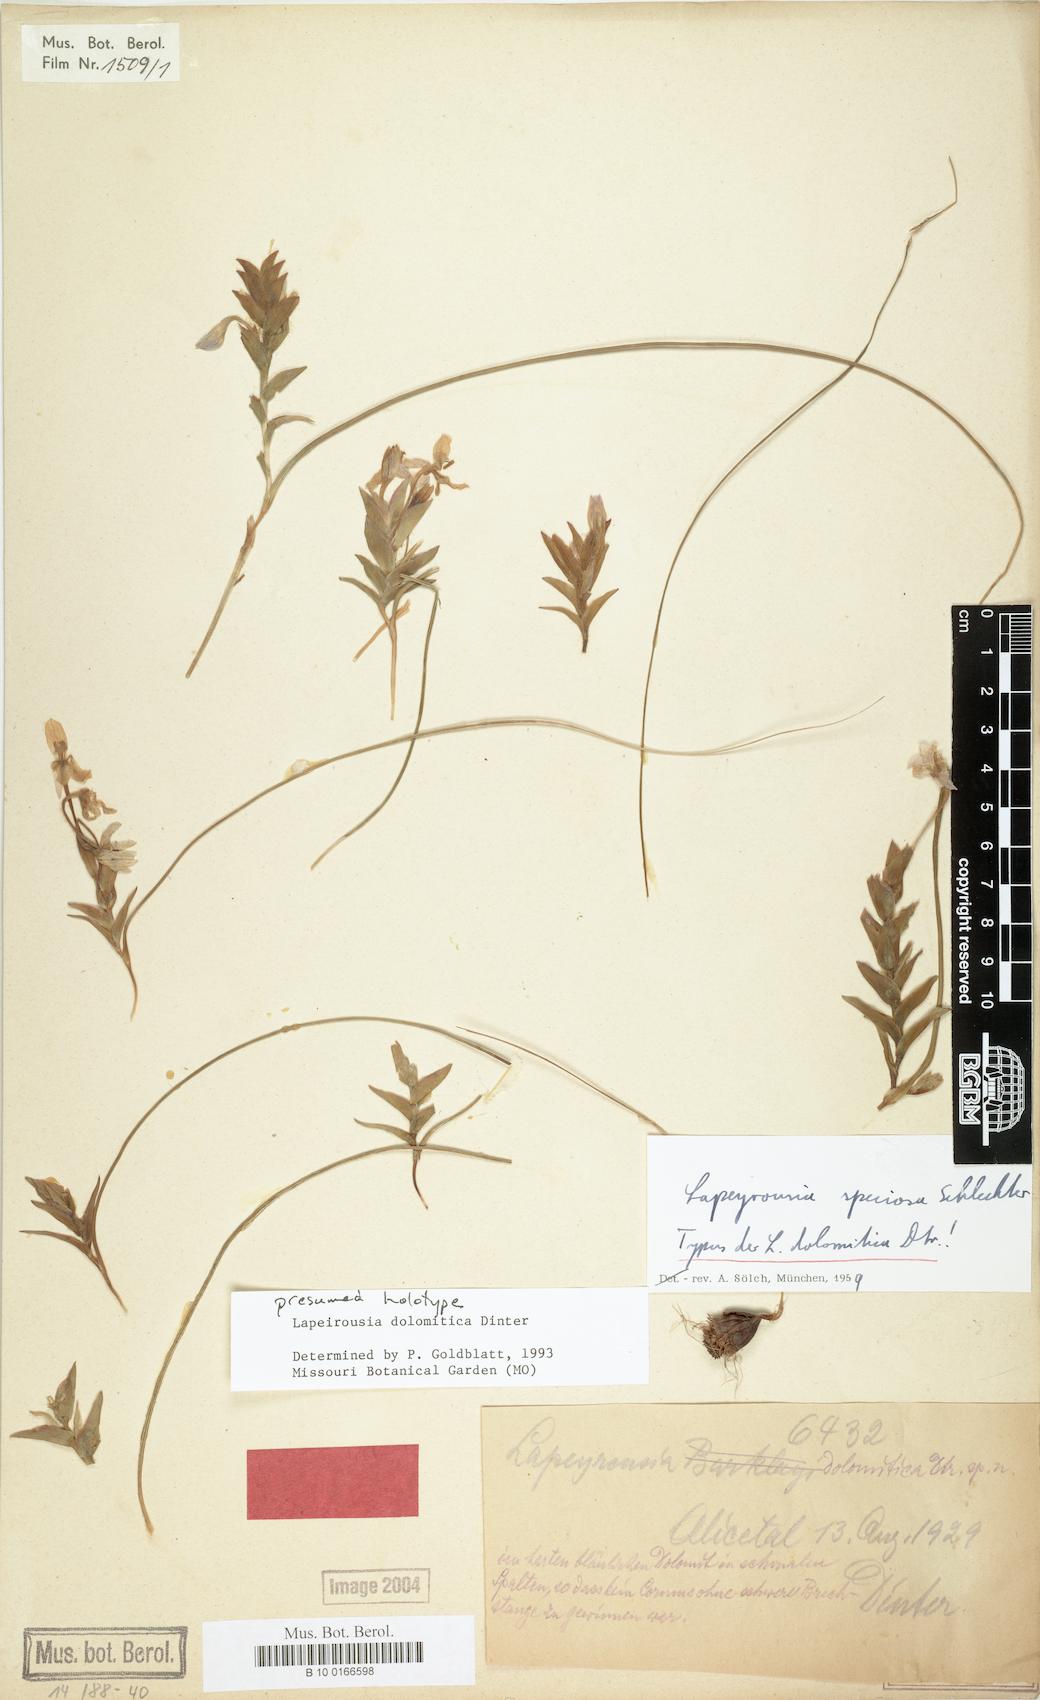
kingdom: Plantae
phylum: Tracheophyta
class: Liliopsida
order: Asparagales
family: Iridaceae
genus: Lapeirousia
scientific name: Lapeirousia dolomitica
